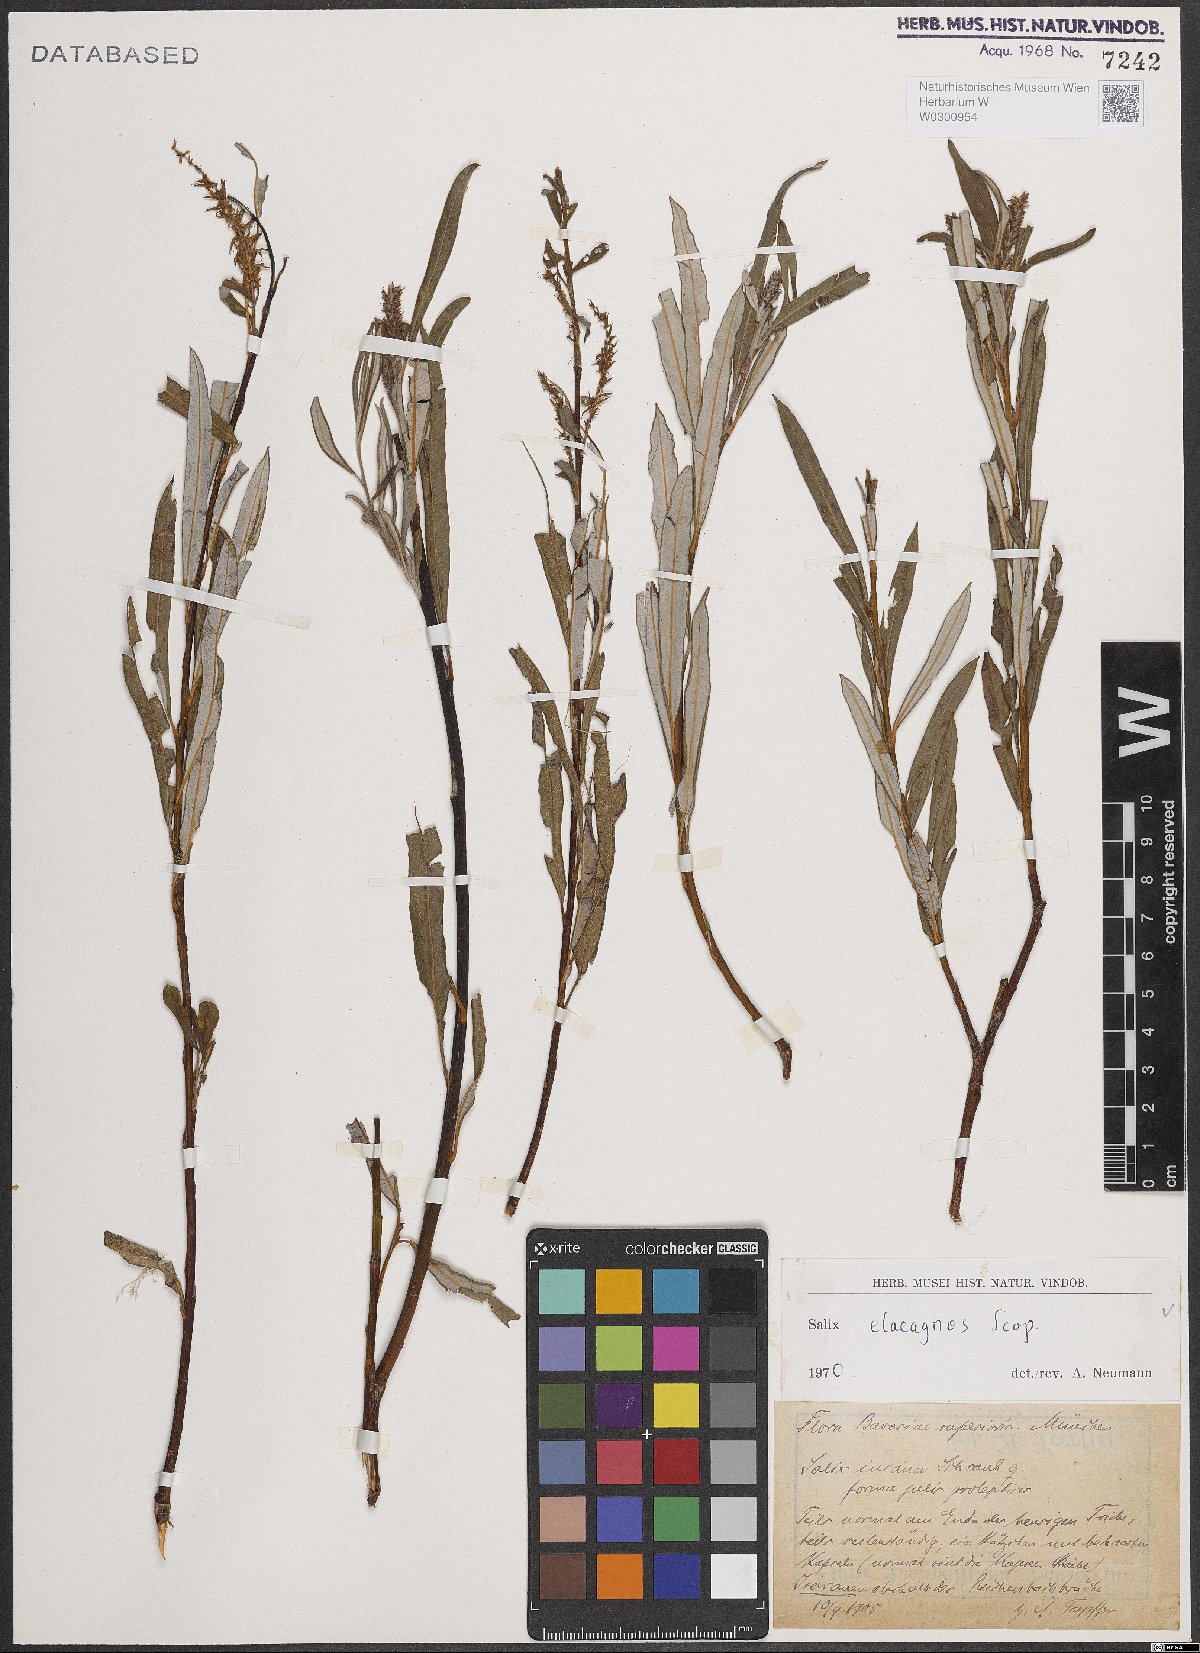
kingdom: Plantae
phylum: Tracheophyta
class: Magnoliopsida
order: Malpighiales
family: Salicaceae
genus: Salix
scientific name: Salix eleagnos
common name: Elaeagnus willow
